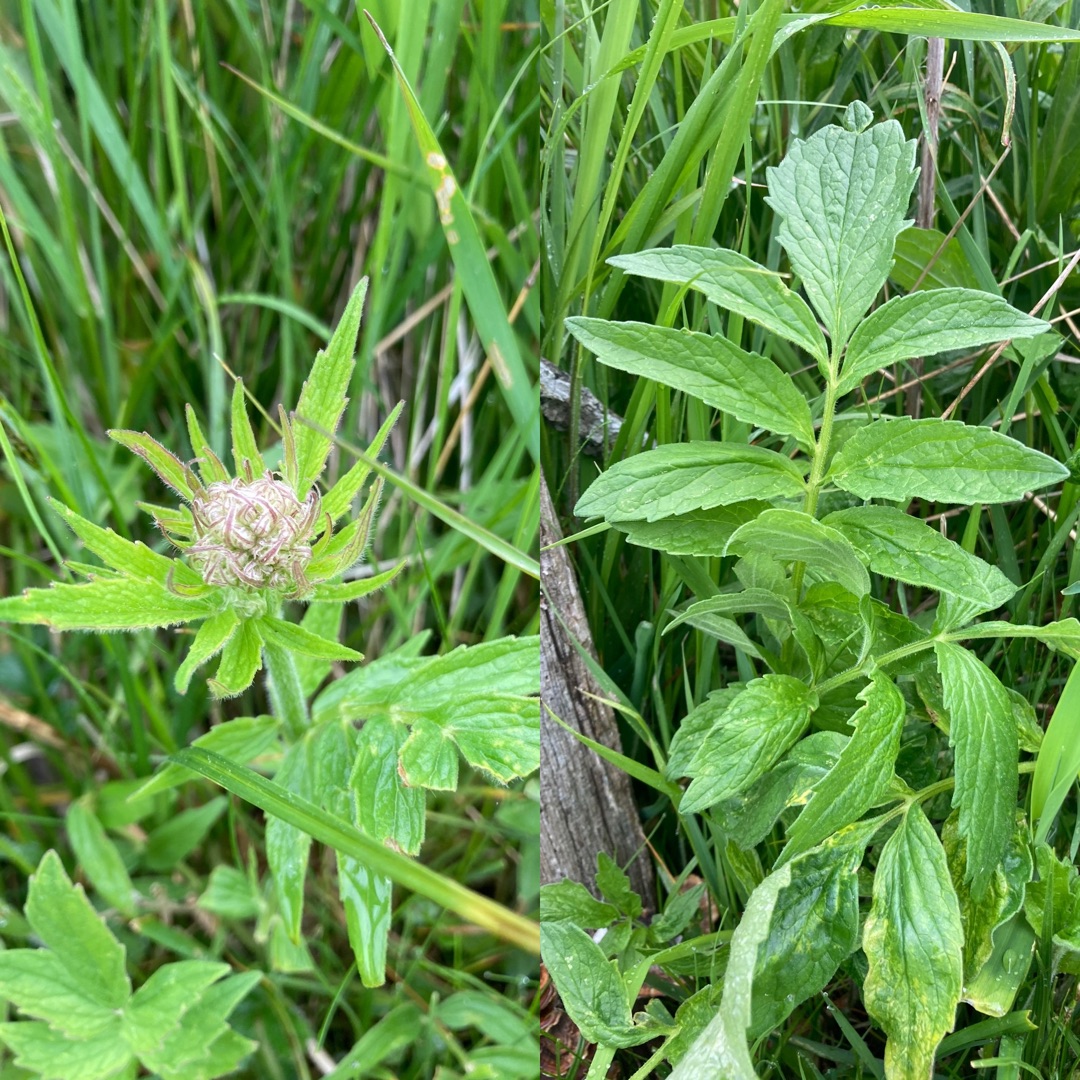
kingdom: Plantae
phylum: Tracheophyta
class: Magnoliopsida
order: Dipsacales
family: Caprifoliaceae
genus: Valeriana
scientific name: Valeriana sambucifolia
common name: Hyldebladet baldrian
